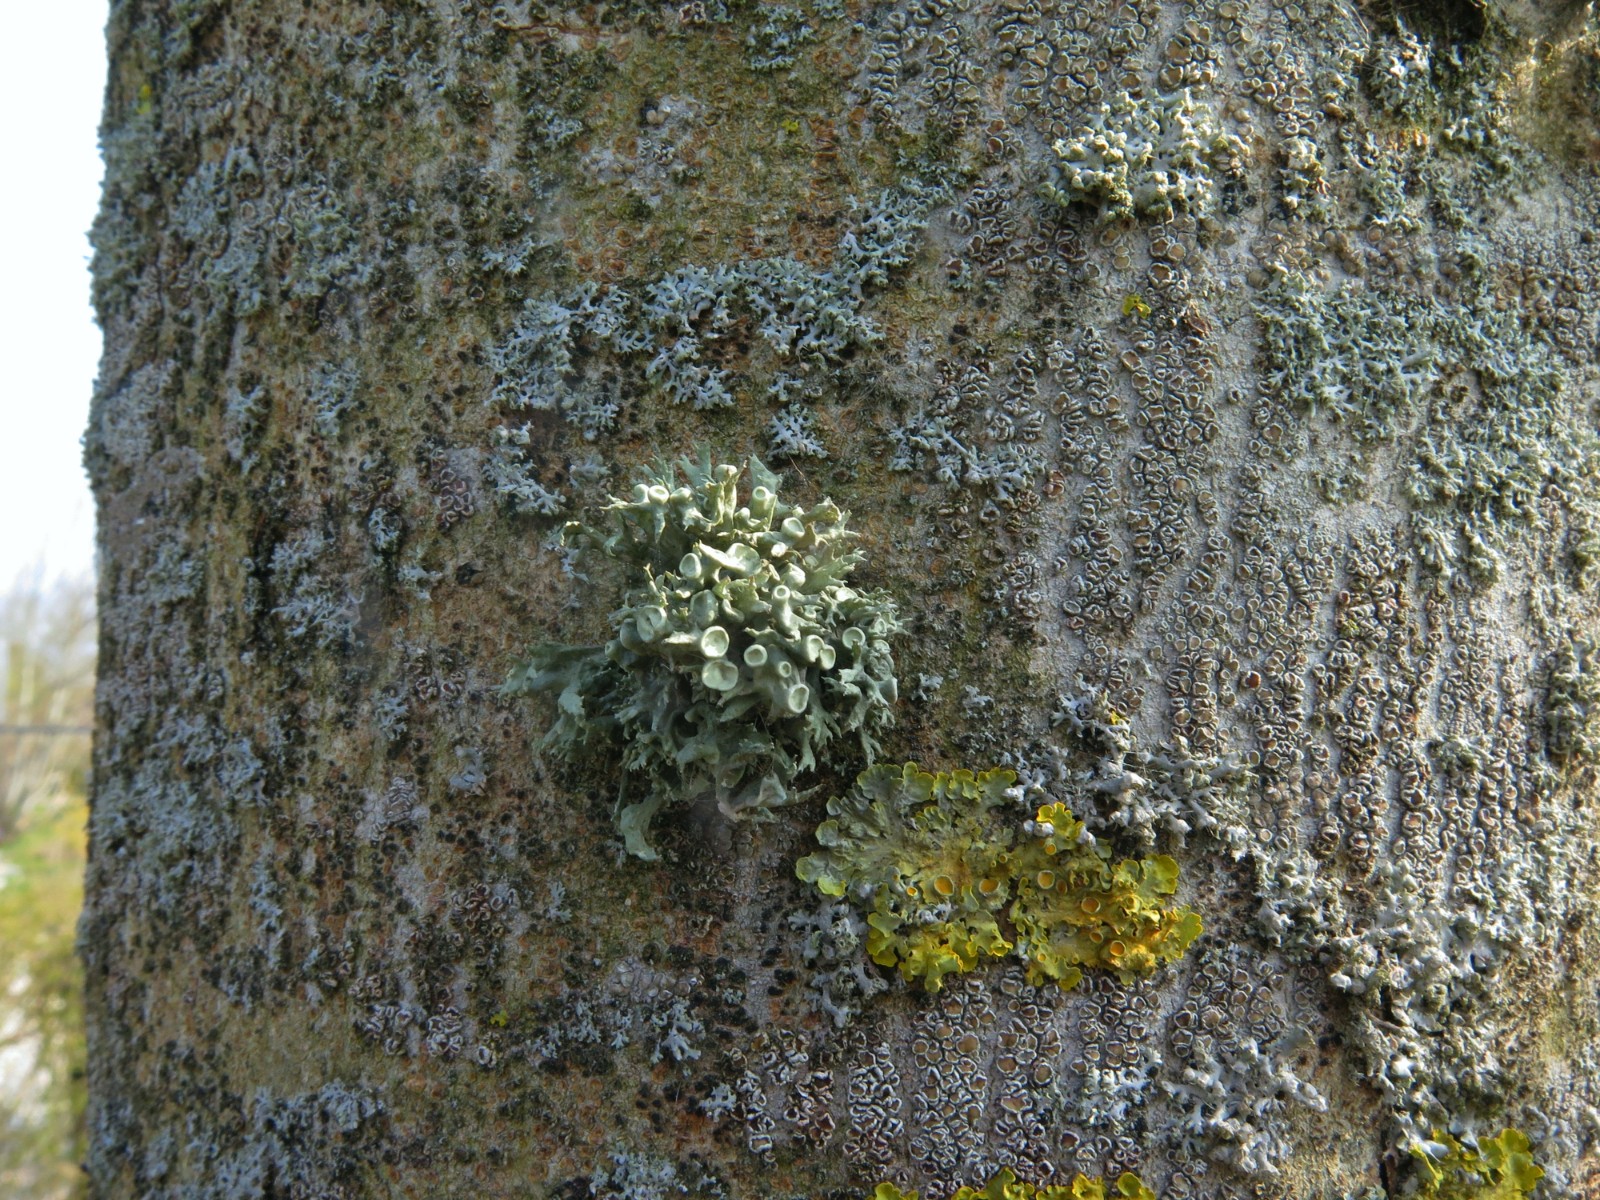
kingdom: Fungi
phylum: Ascomycota
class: Lecanoromycetes
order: Lecanorales
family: Ramalinaceae
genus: Ramalina
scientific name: Ramalina fastigiata
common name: tue-grenlav
